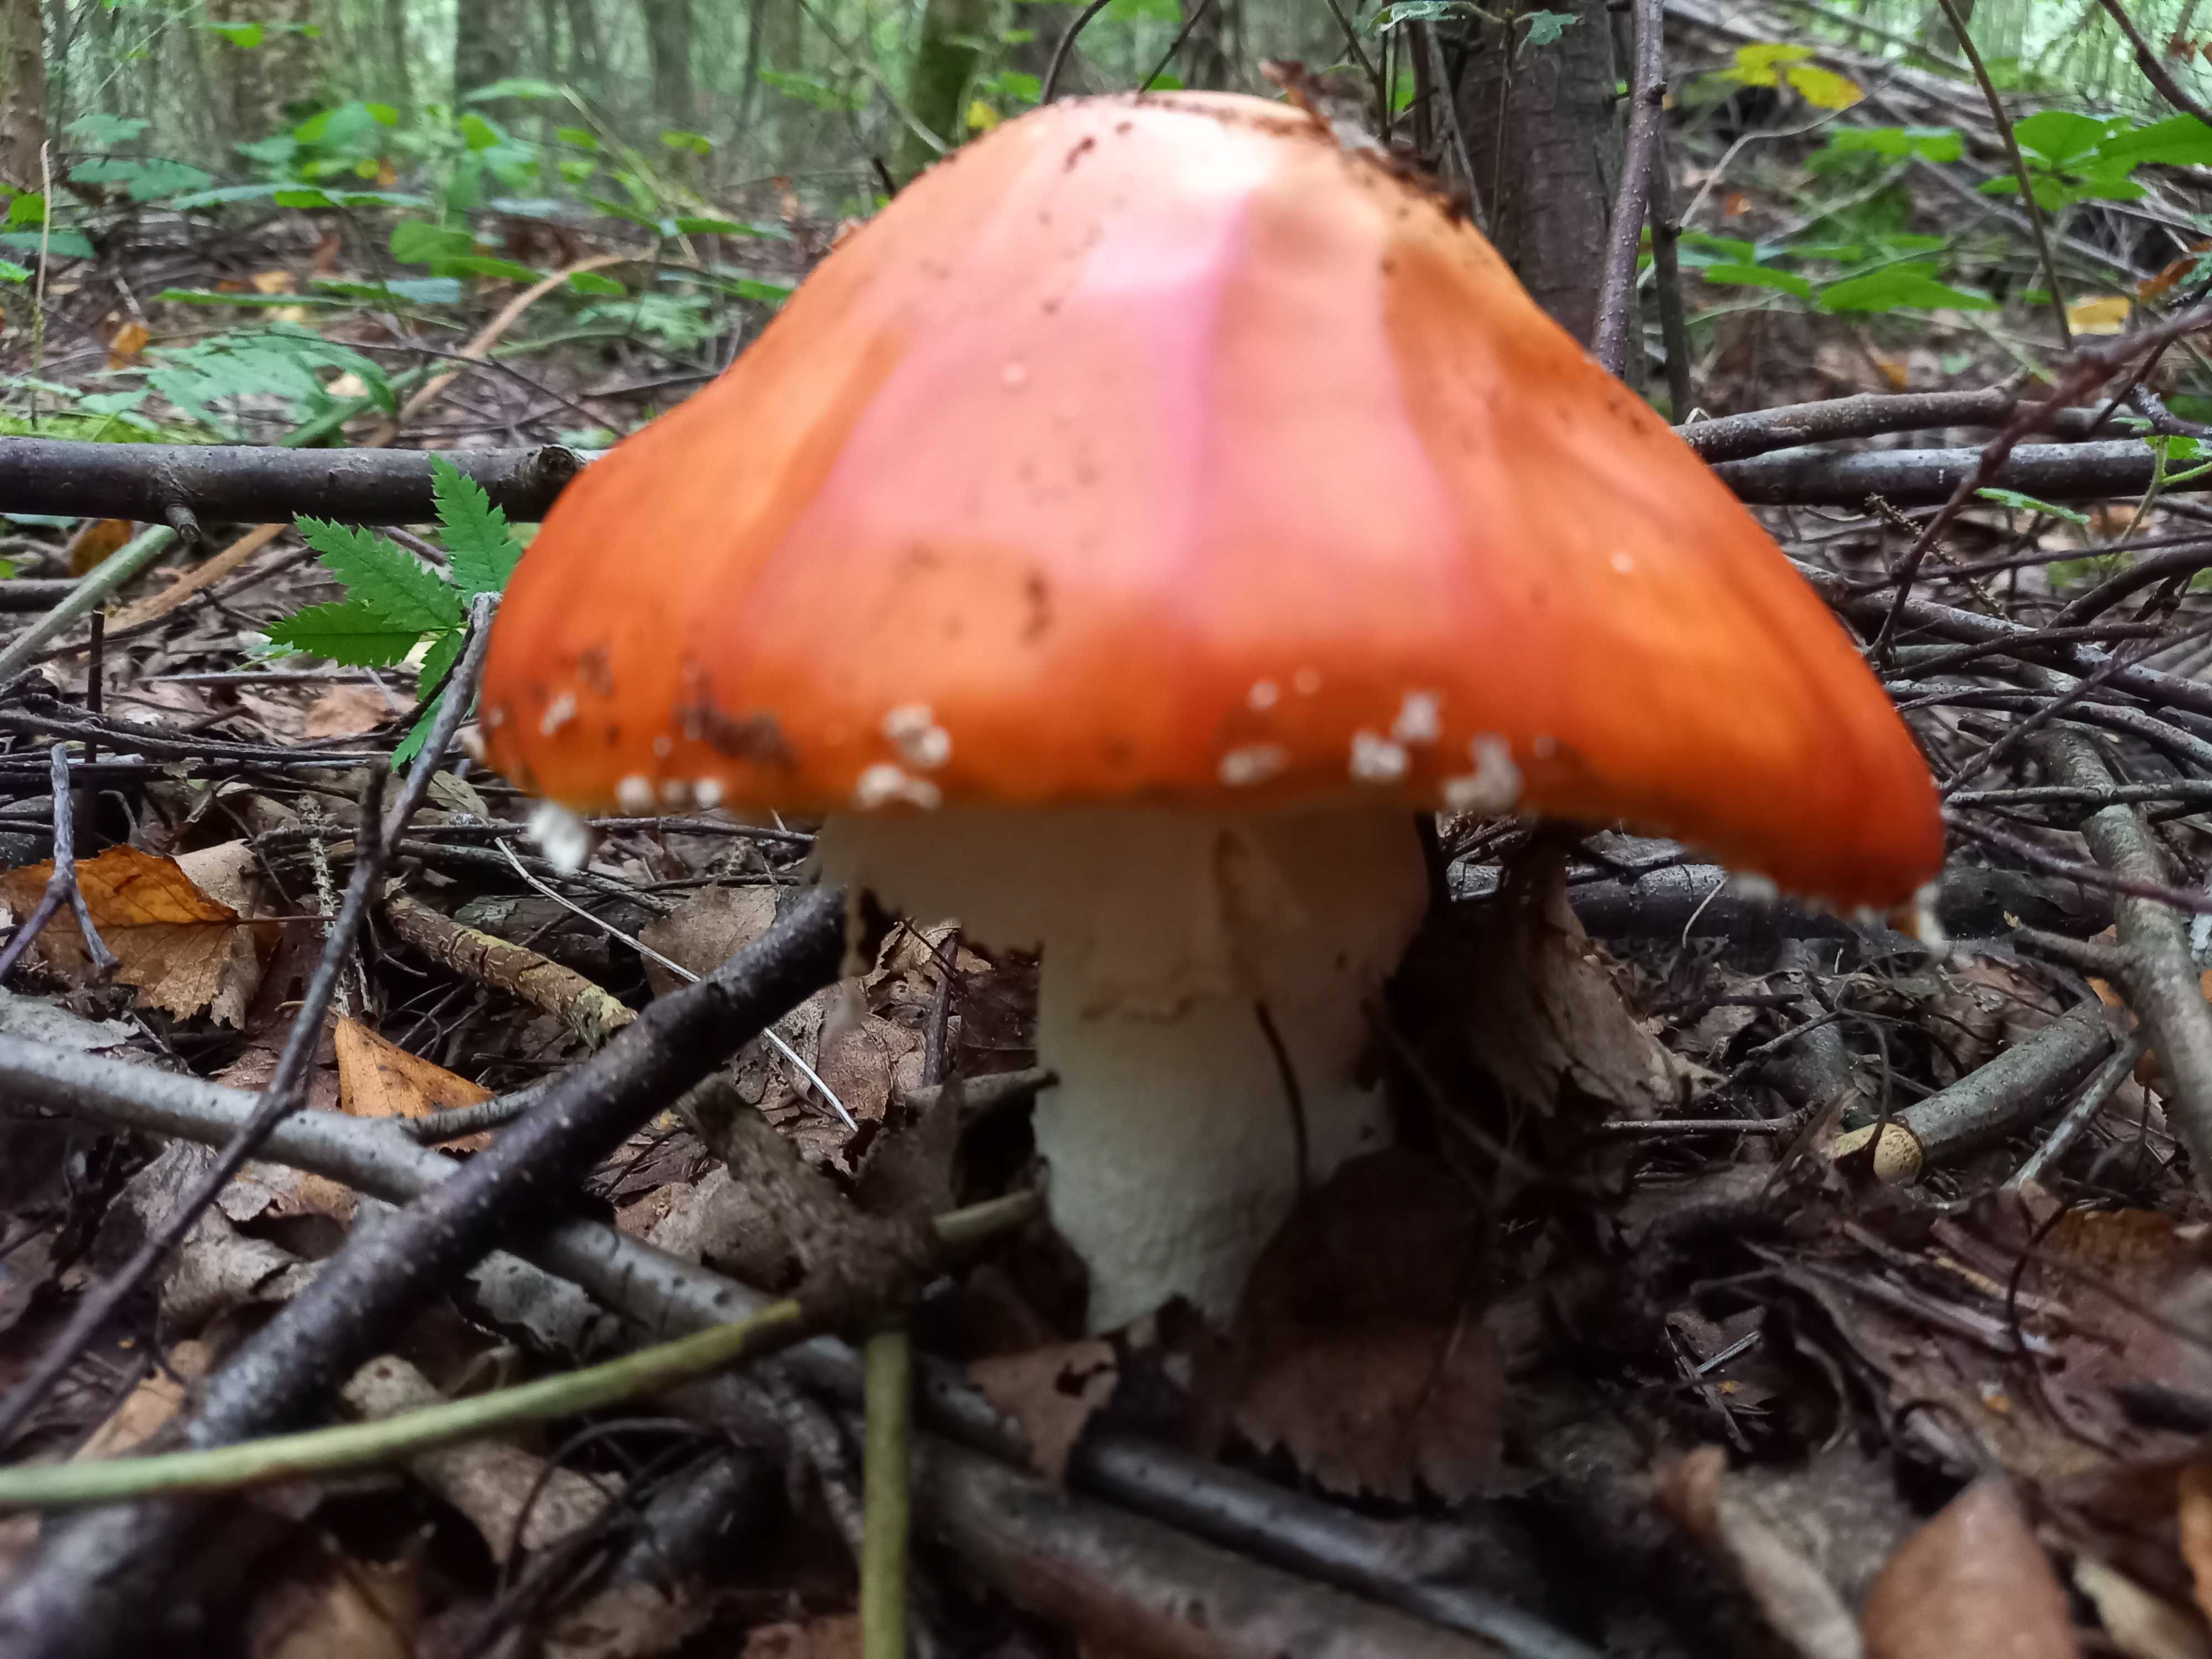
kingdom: Fungi
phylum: Basidiomycota
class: Agaricomycetes
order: Agaricales
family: Amanitaceae
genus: Amanita
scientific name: Amanita muscaria
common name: rød fluesvamp
